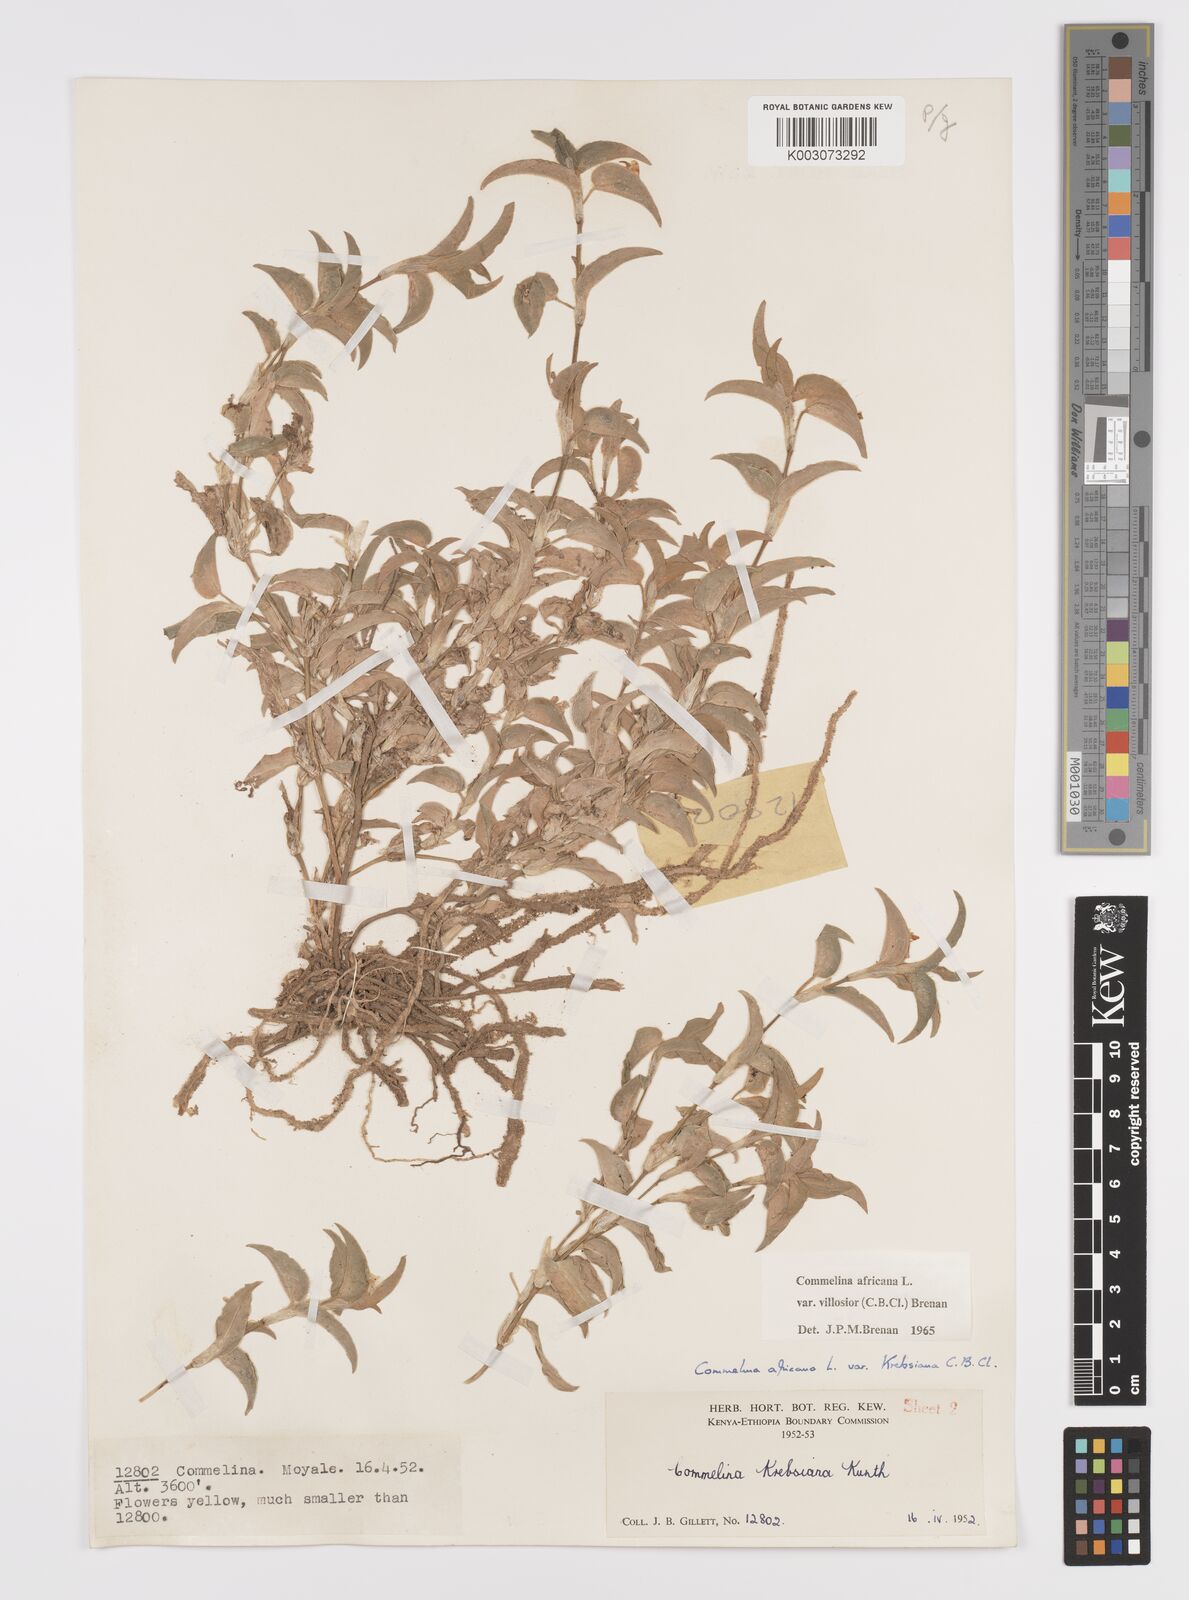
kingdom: Plantae
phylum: Tracheophyta
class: Liliopsida
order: Commelinales
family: Commelinaceae
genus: Commelina
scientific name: Commelina africana
